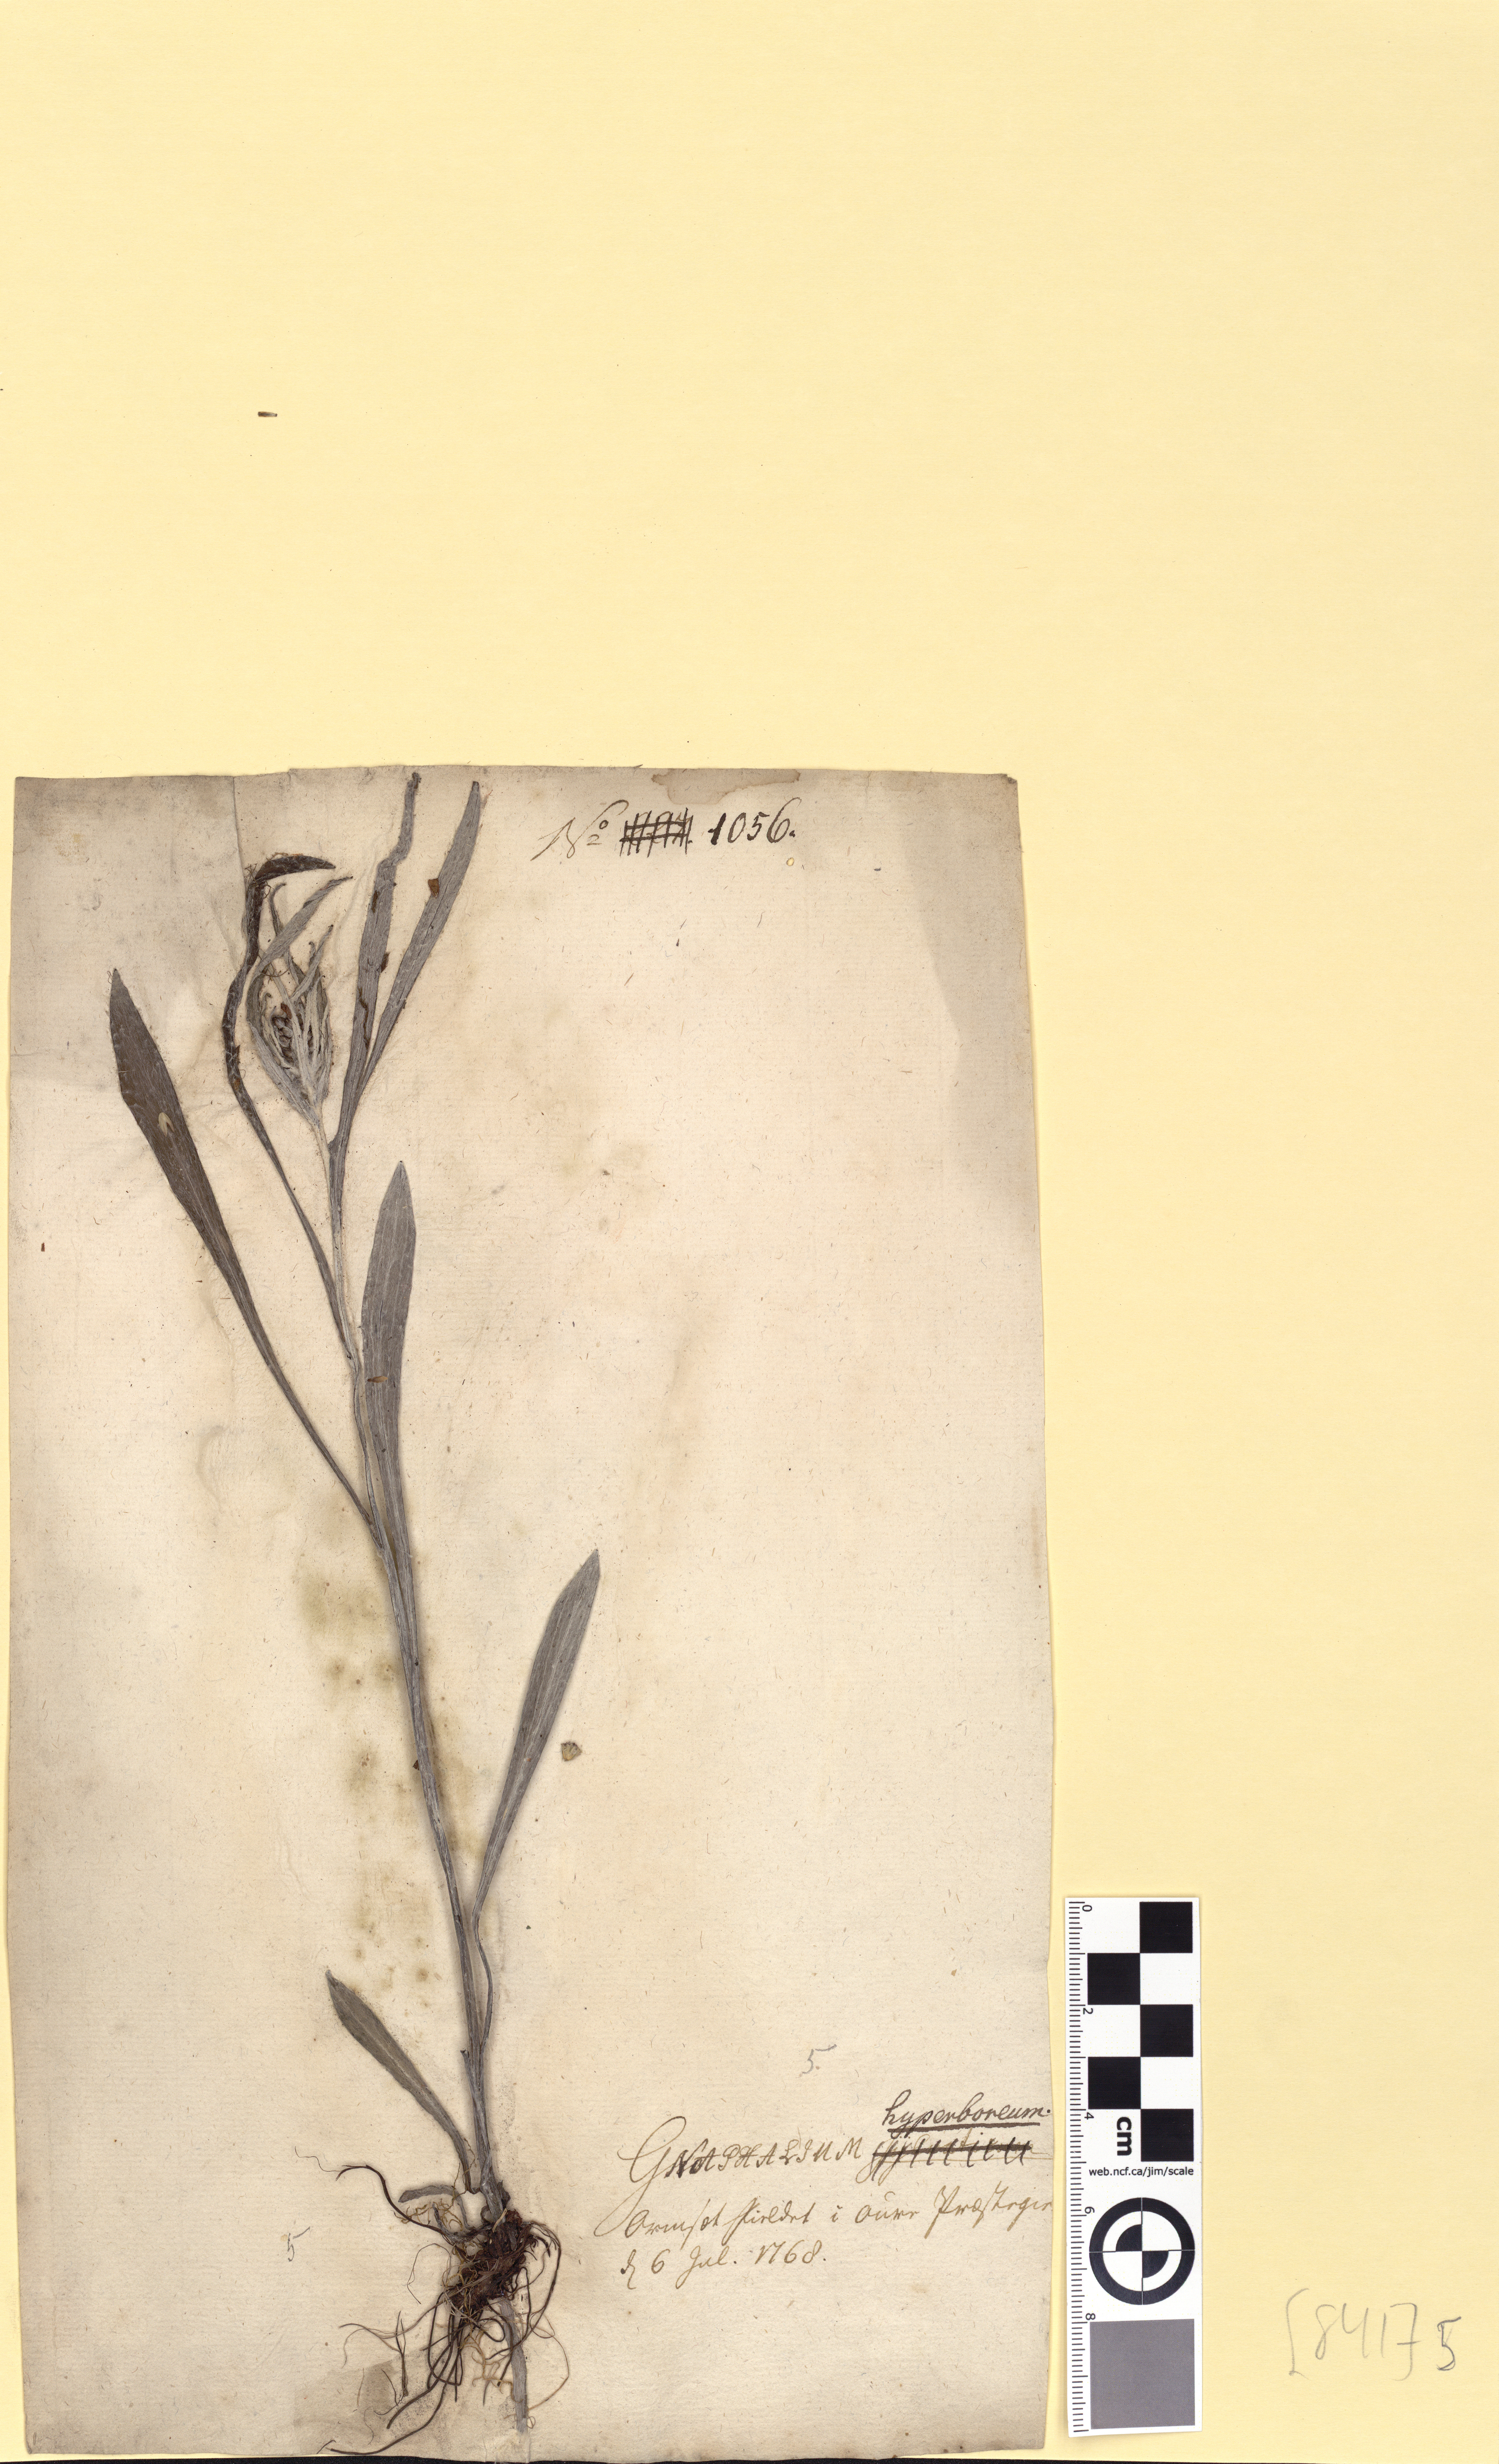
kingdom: Plantae
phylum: Tracheophyta
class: Magnoliopsida
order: Asterales
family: Asteraceae
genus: Omalotheca
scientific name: Omalotheca norvegica
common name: Norwegian arctic-cudweed
